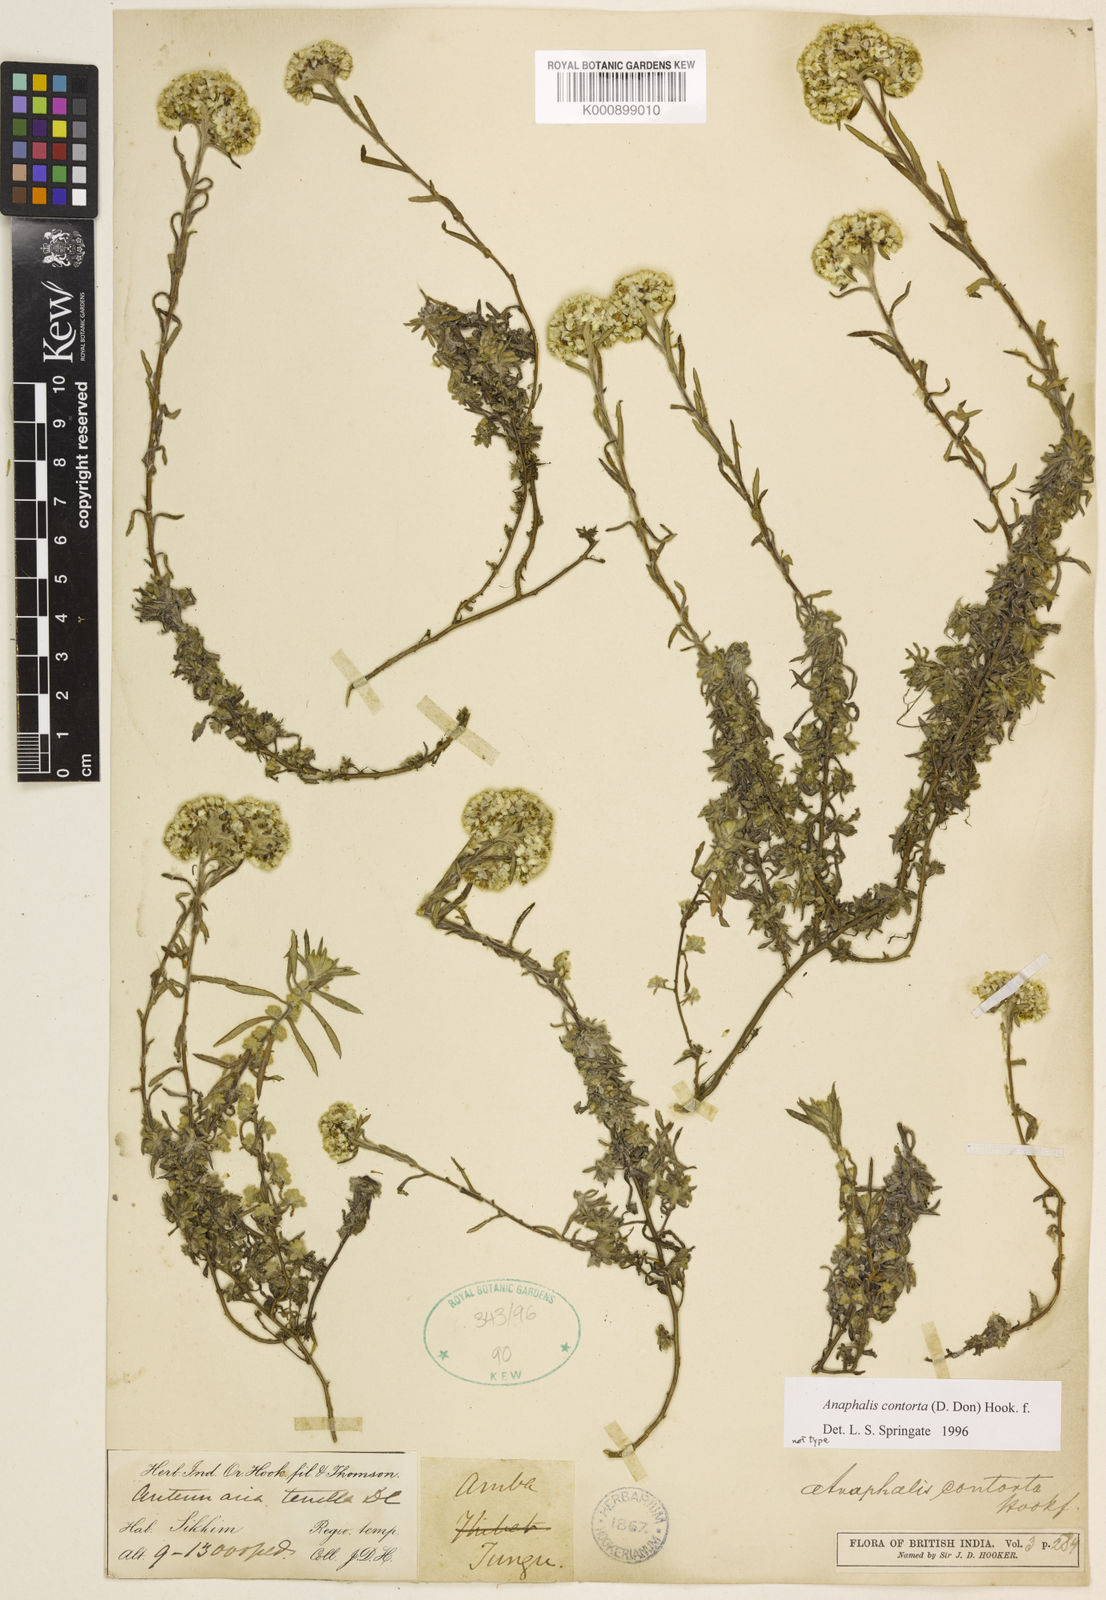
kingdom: Plantae
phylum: Tracheophyta
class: Magnoliopsida
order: Asterales
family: Asteraceae
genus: Anaphalis
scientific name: Anaphalis contorta
